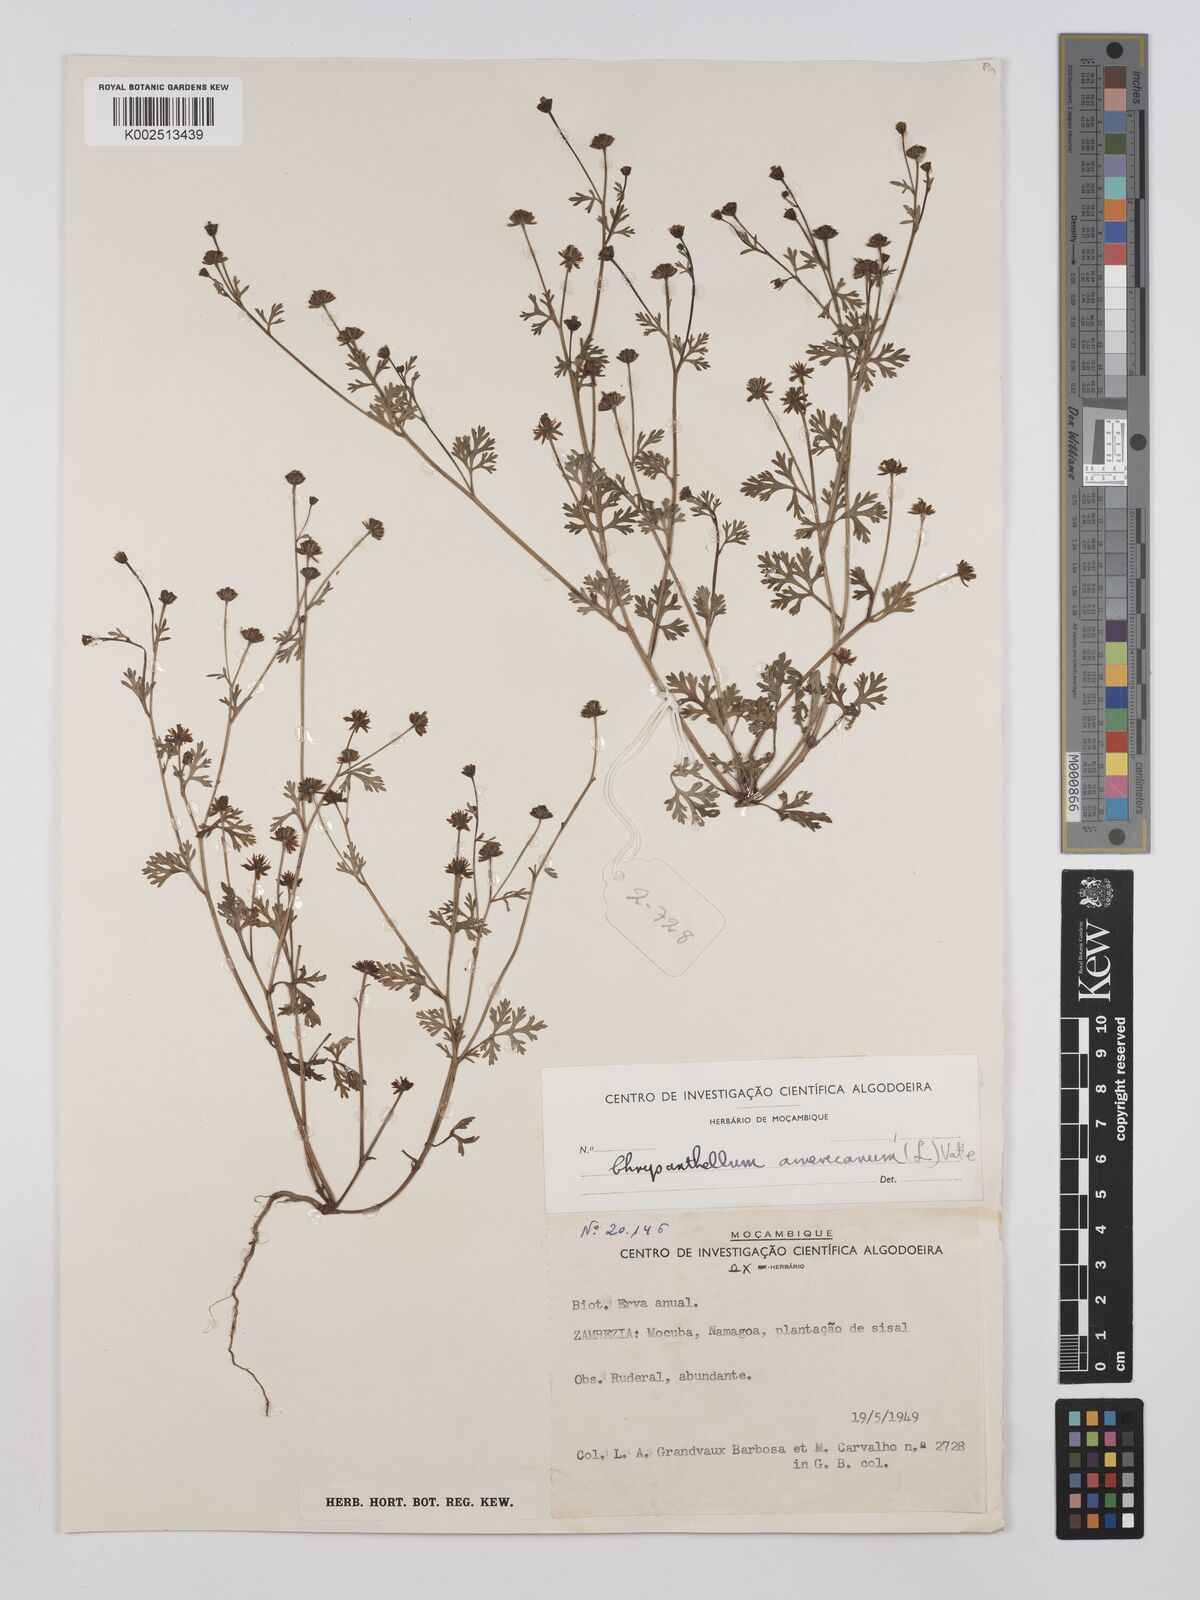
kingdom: Plantae
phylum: Tracheophyta
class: Magnoliopsida
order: Asterales
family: Asteraceae
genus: Chrysanthellum
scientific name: Chrysanthellum indicum
